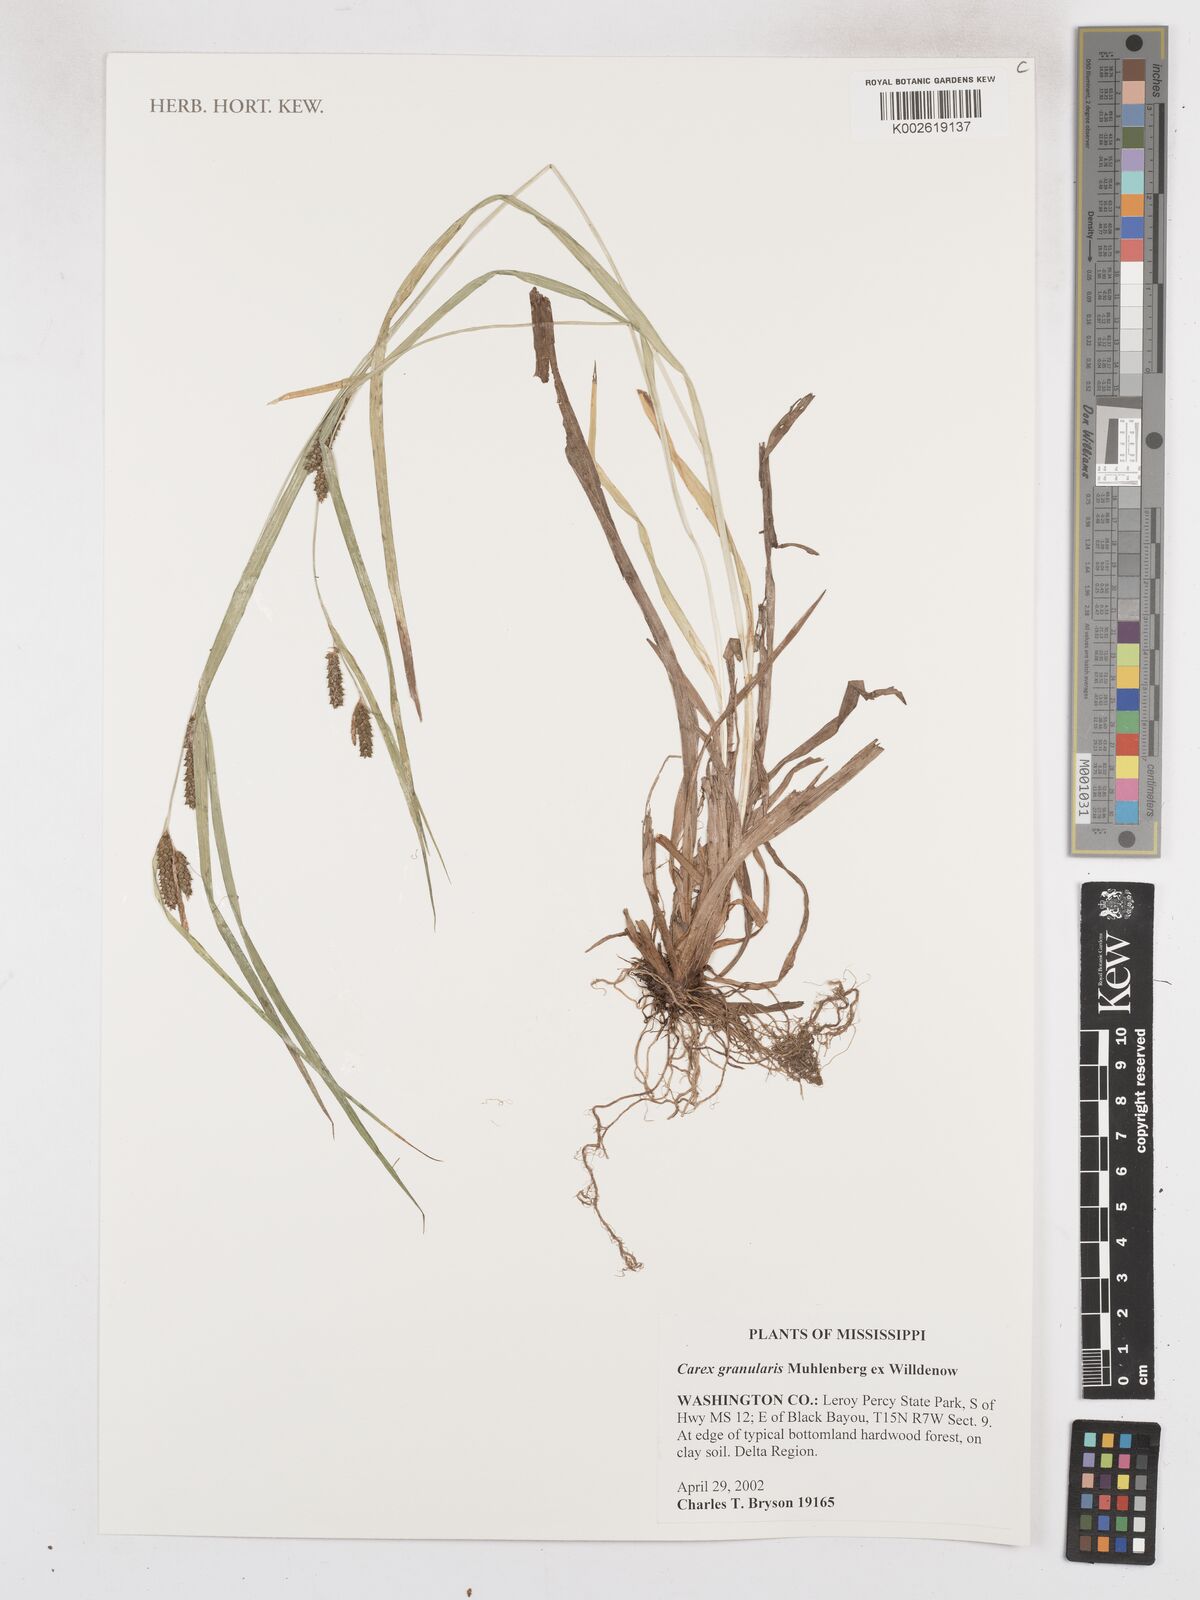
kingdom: Plantae
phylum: Tracheophyta
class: Liliopsida
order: Poales
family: Cyperaceae
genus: Carex
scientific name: Carex granularis
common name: Granular sedge
